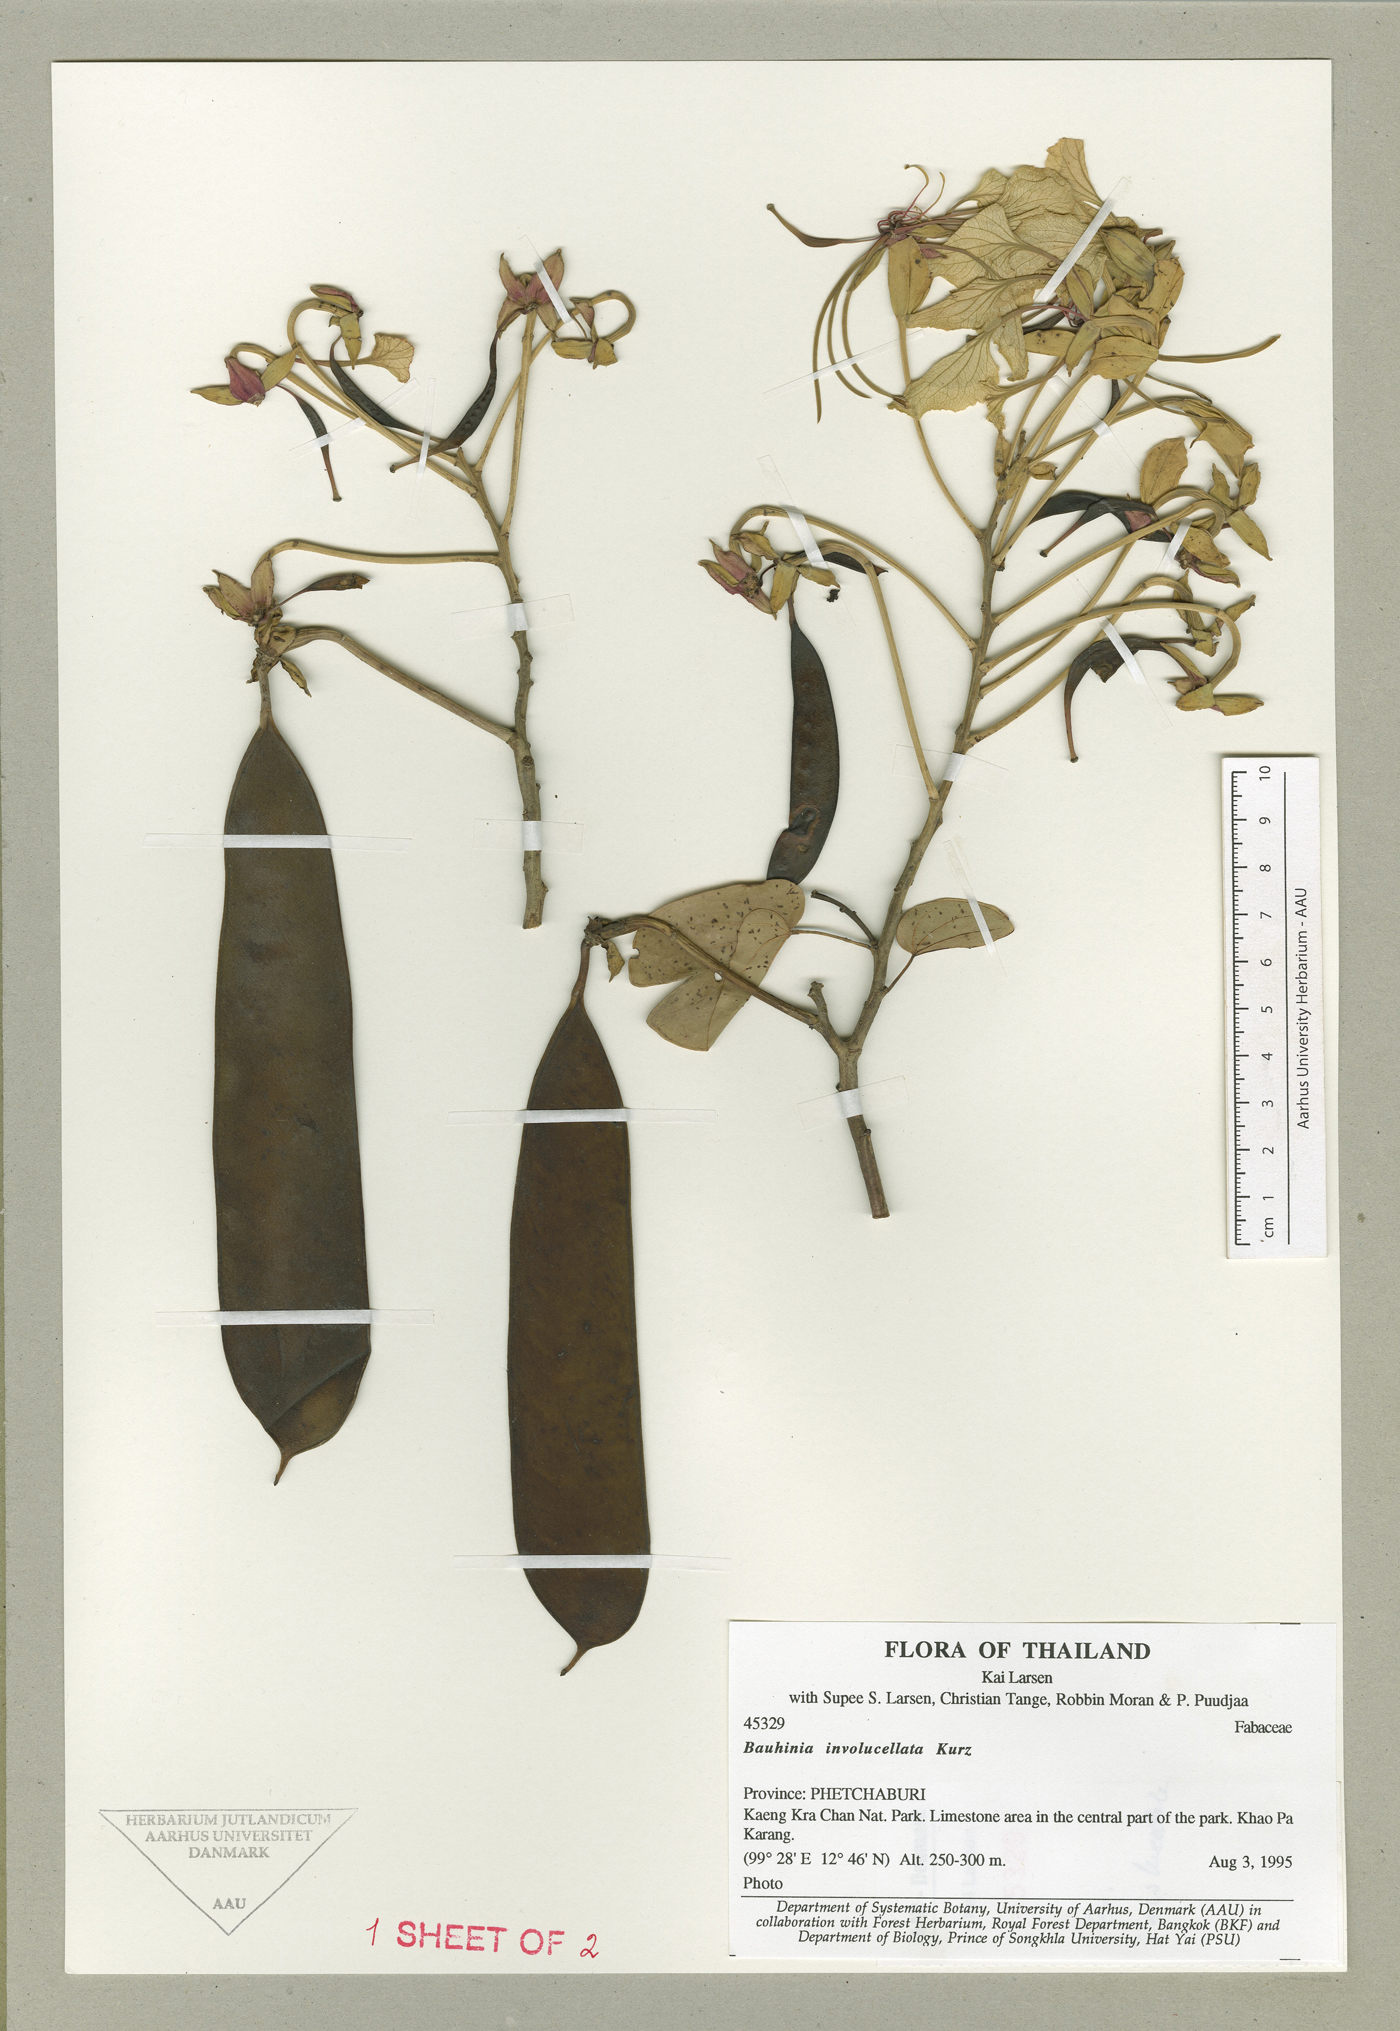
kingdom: Plantae
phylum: Tracheophyta
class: Magnoliopsida
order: Fabales
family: Fabaceae
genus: Phanera
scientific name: Phanera involucellata
